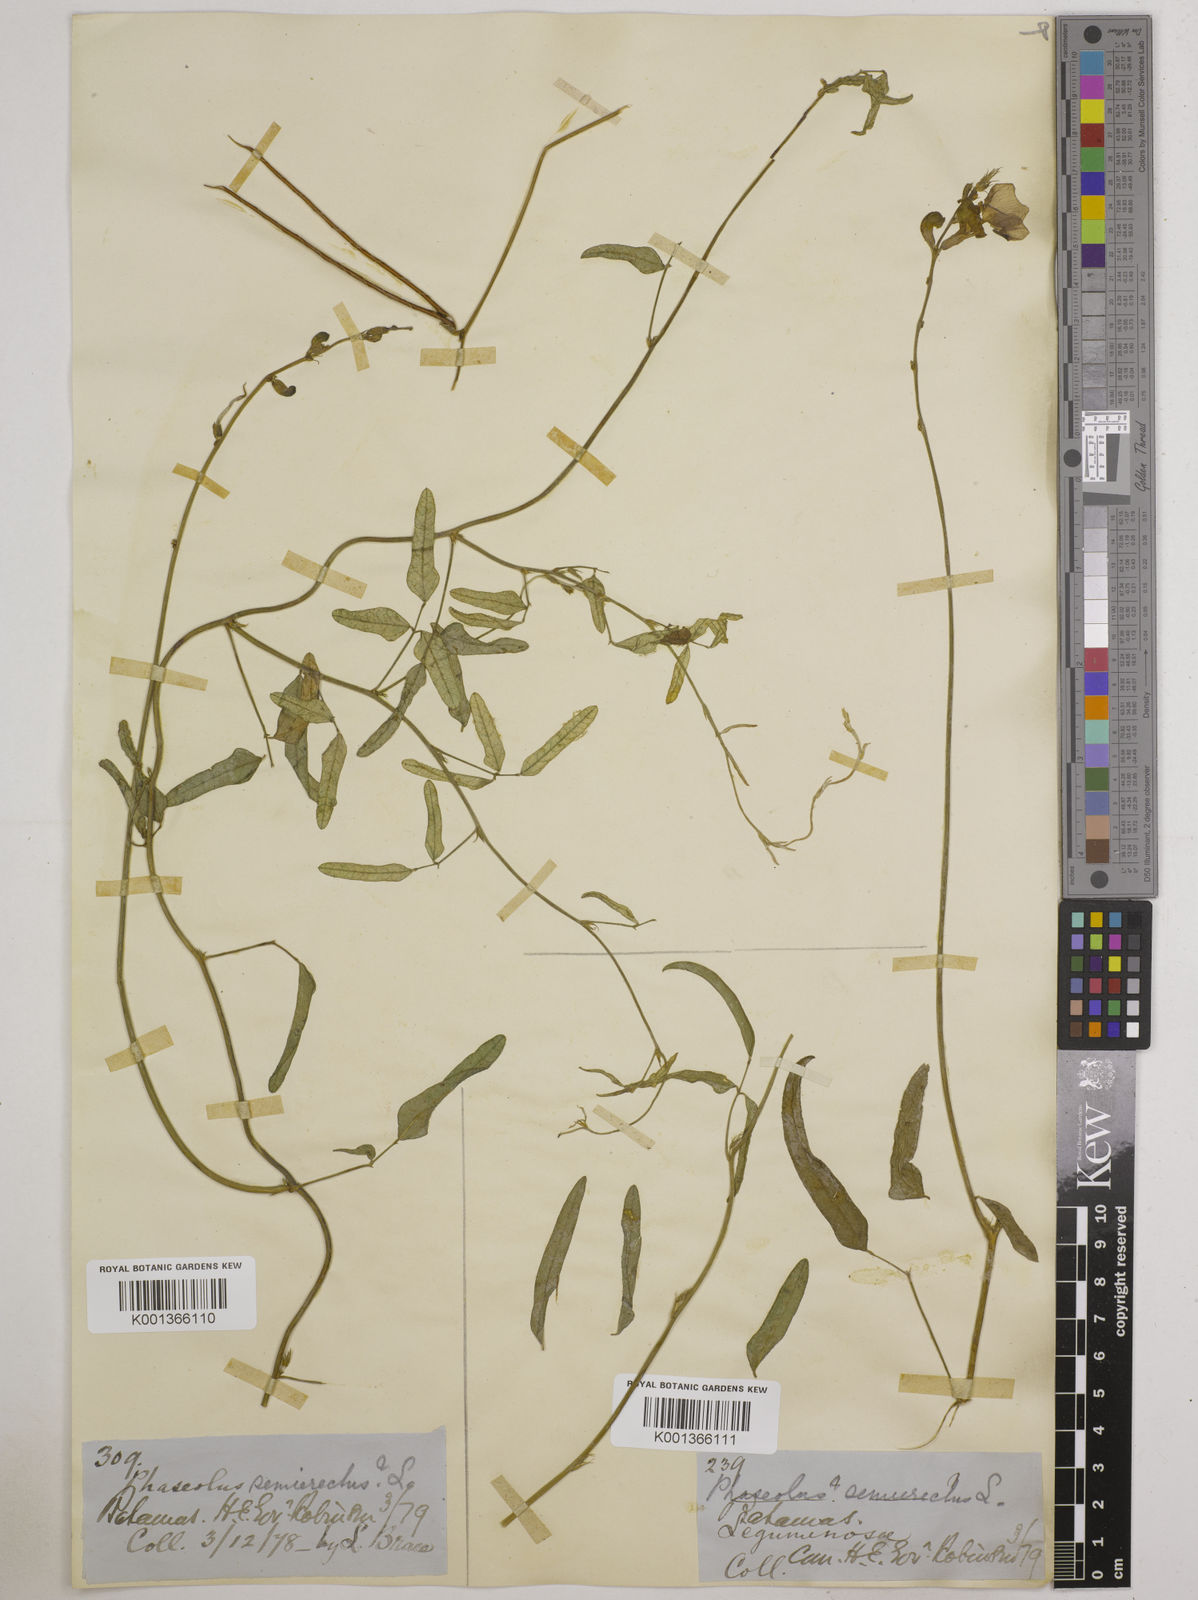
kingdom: Plantae
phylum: Tracheophyta
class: Magnoliopsida
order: Fabales
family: Fabaceae
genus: Macroptilium
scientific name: Macroptilium lathyroides
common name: Wild bushbean
